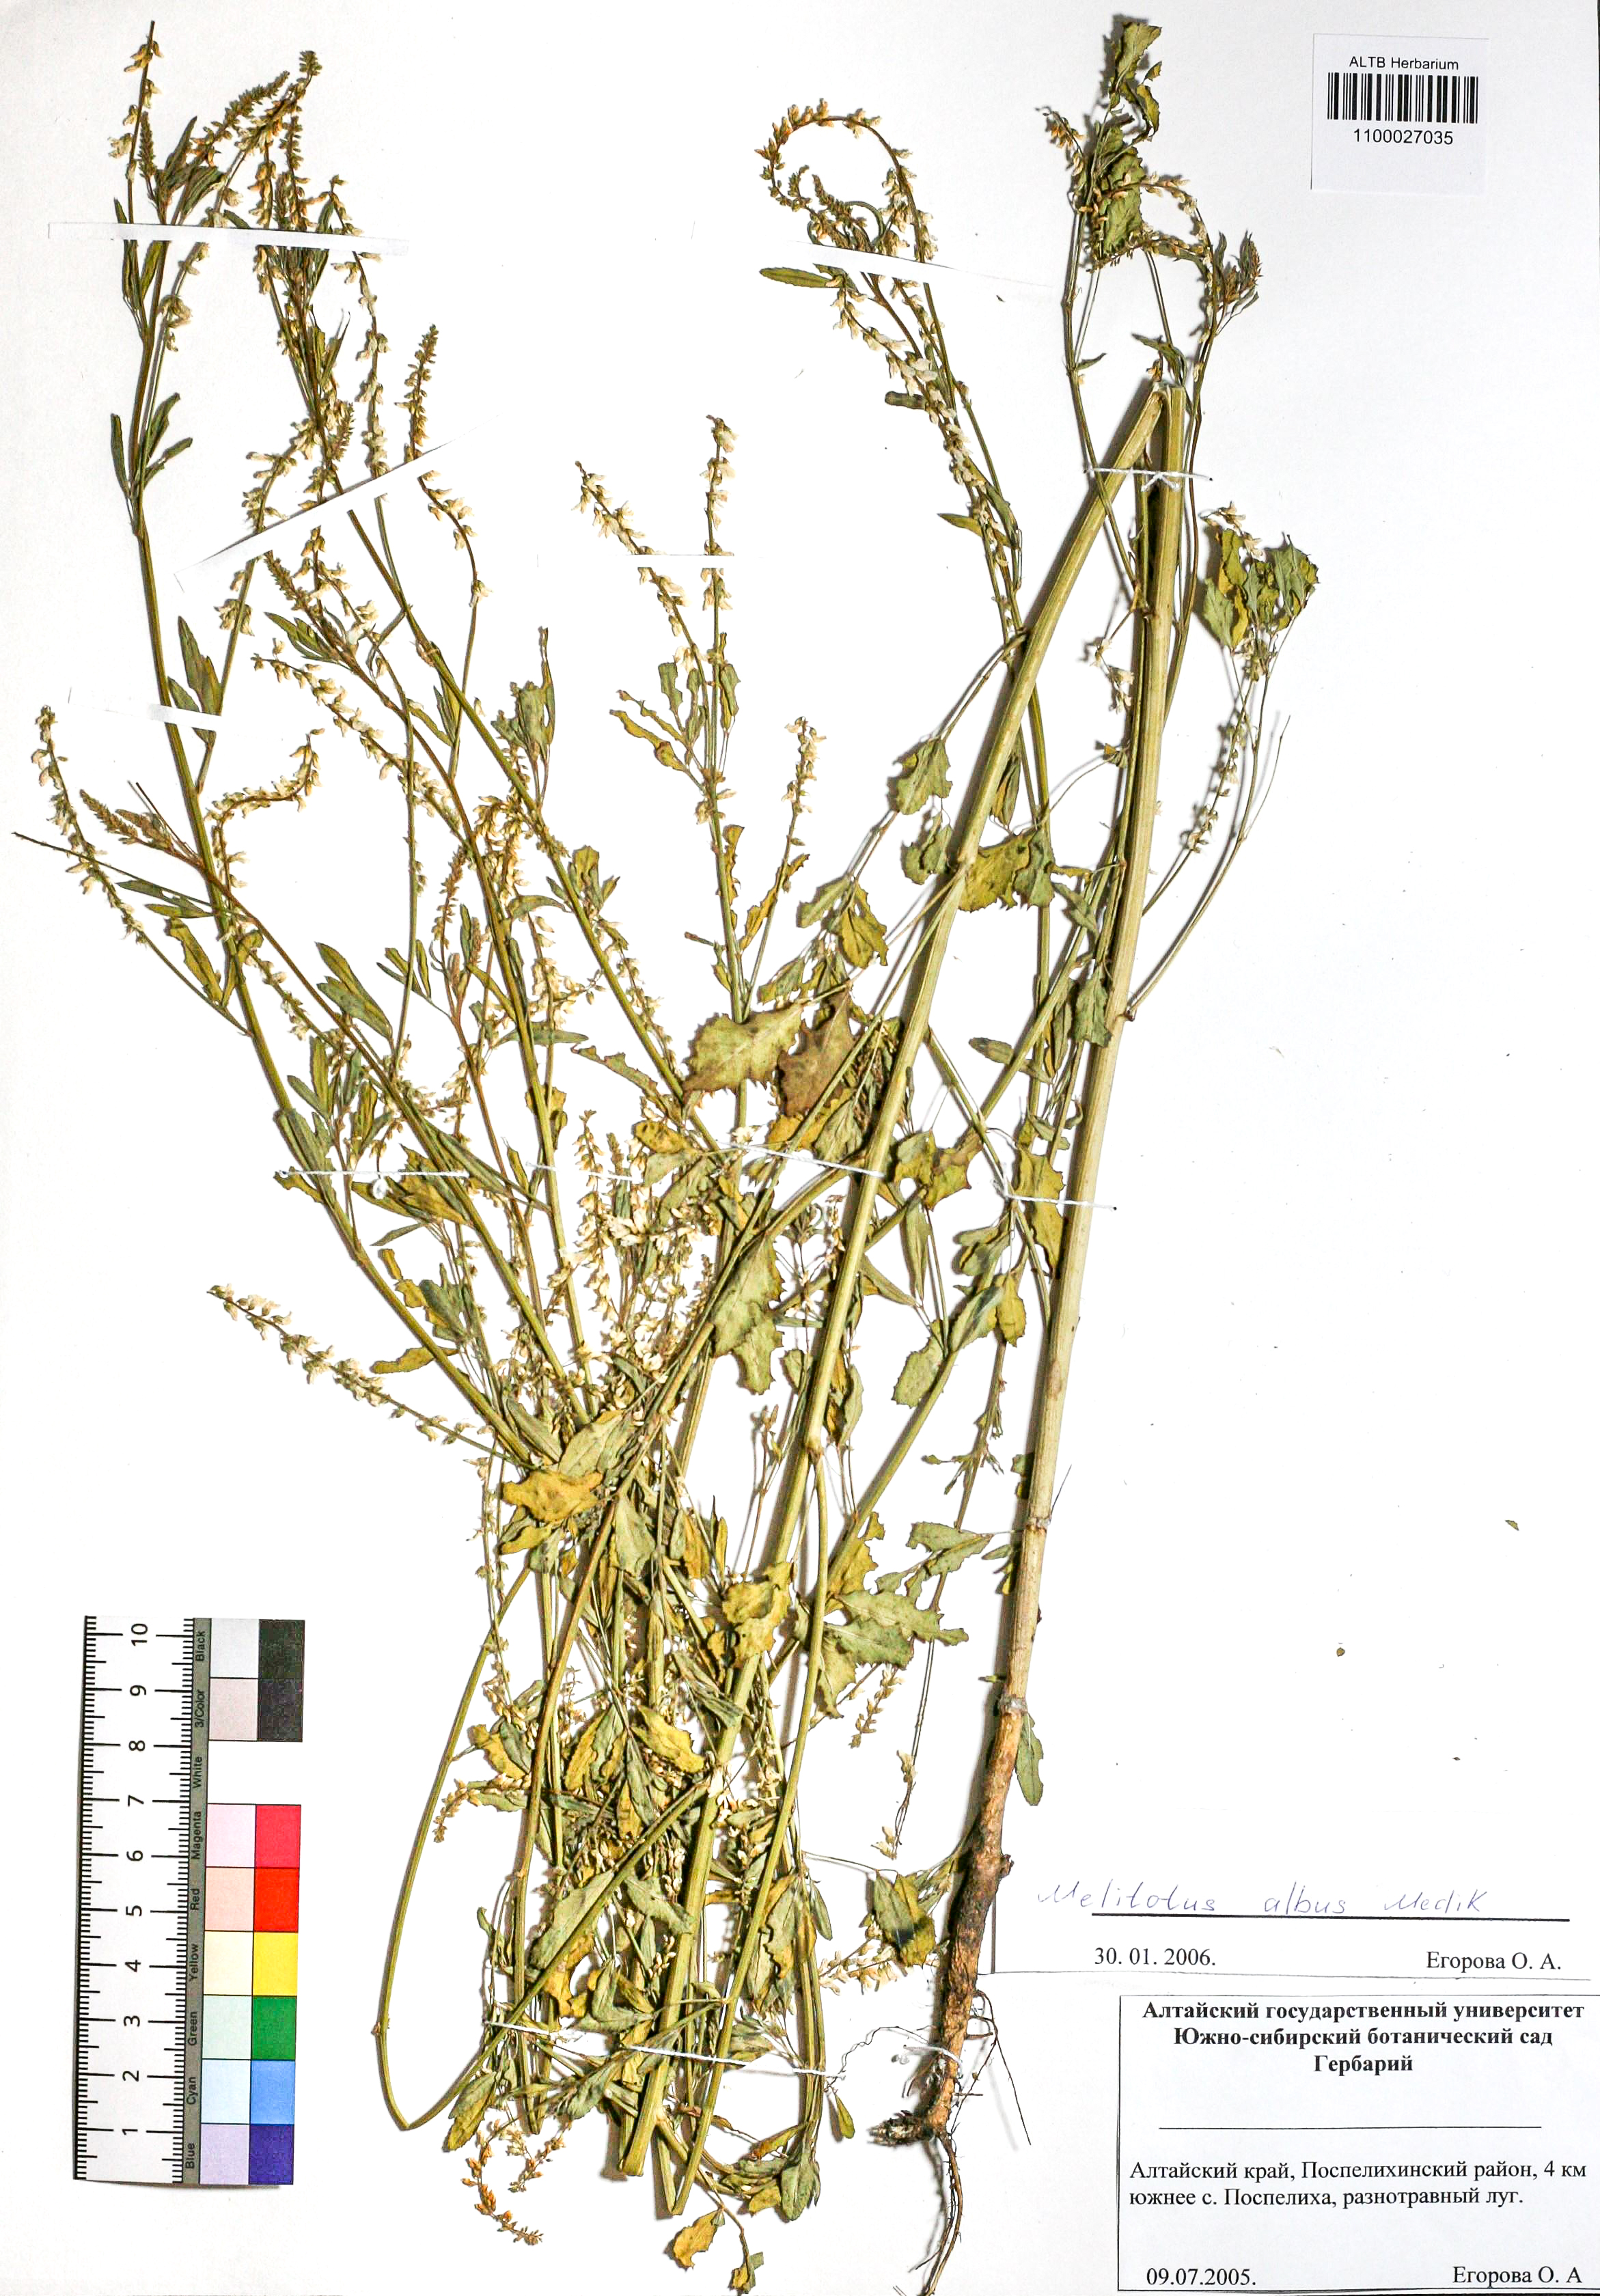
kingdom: Plantae
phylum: Tracheophyta
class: Magnoliopsida
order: Fabales
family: Fabaceae
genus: Melilotus
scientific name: Melilotus albus
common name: White melilot
